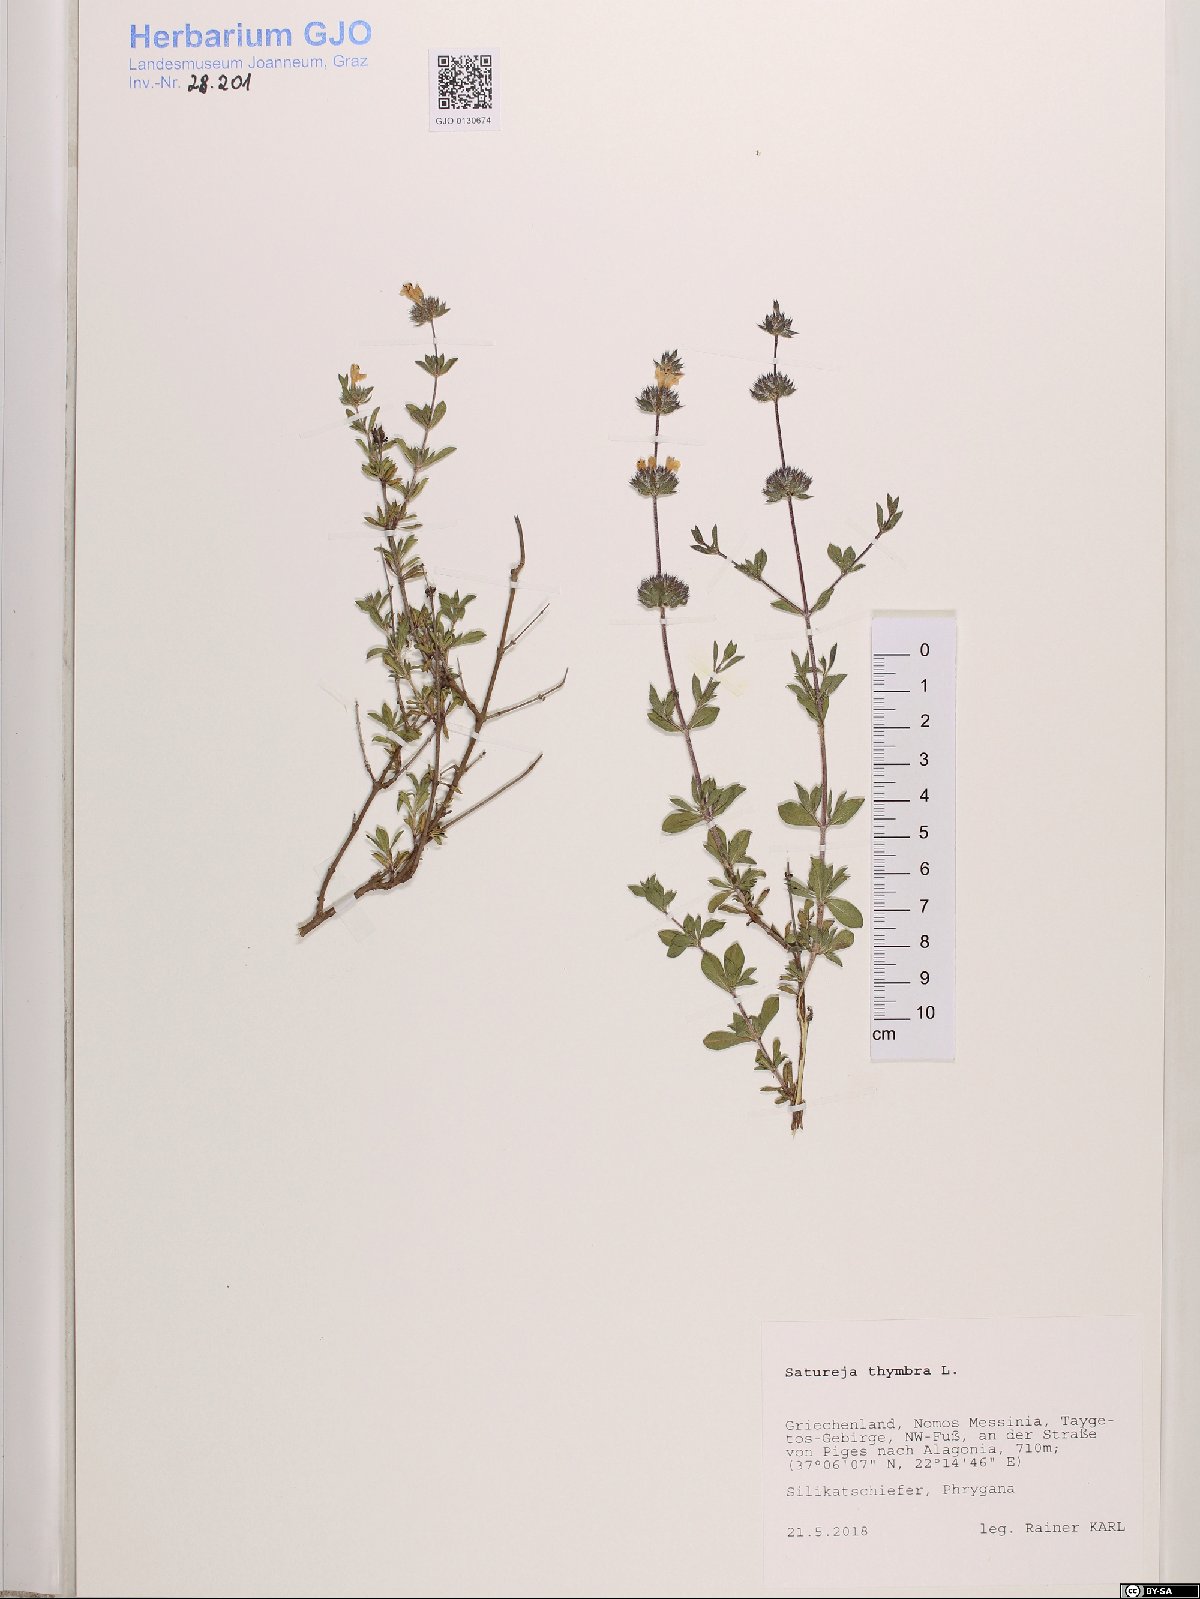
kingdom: Plantae
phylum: Tracheophyta
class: Magnoliopsida
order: Lamiales
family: Lamiaceae
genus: Satureja
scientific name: Satureja thymbra
